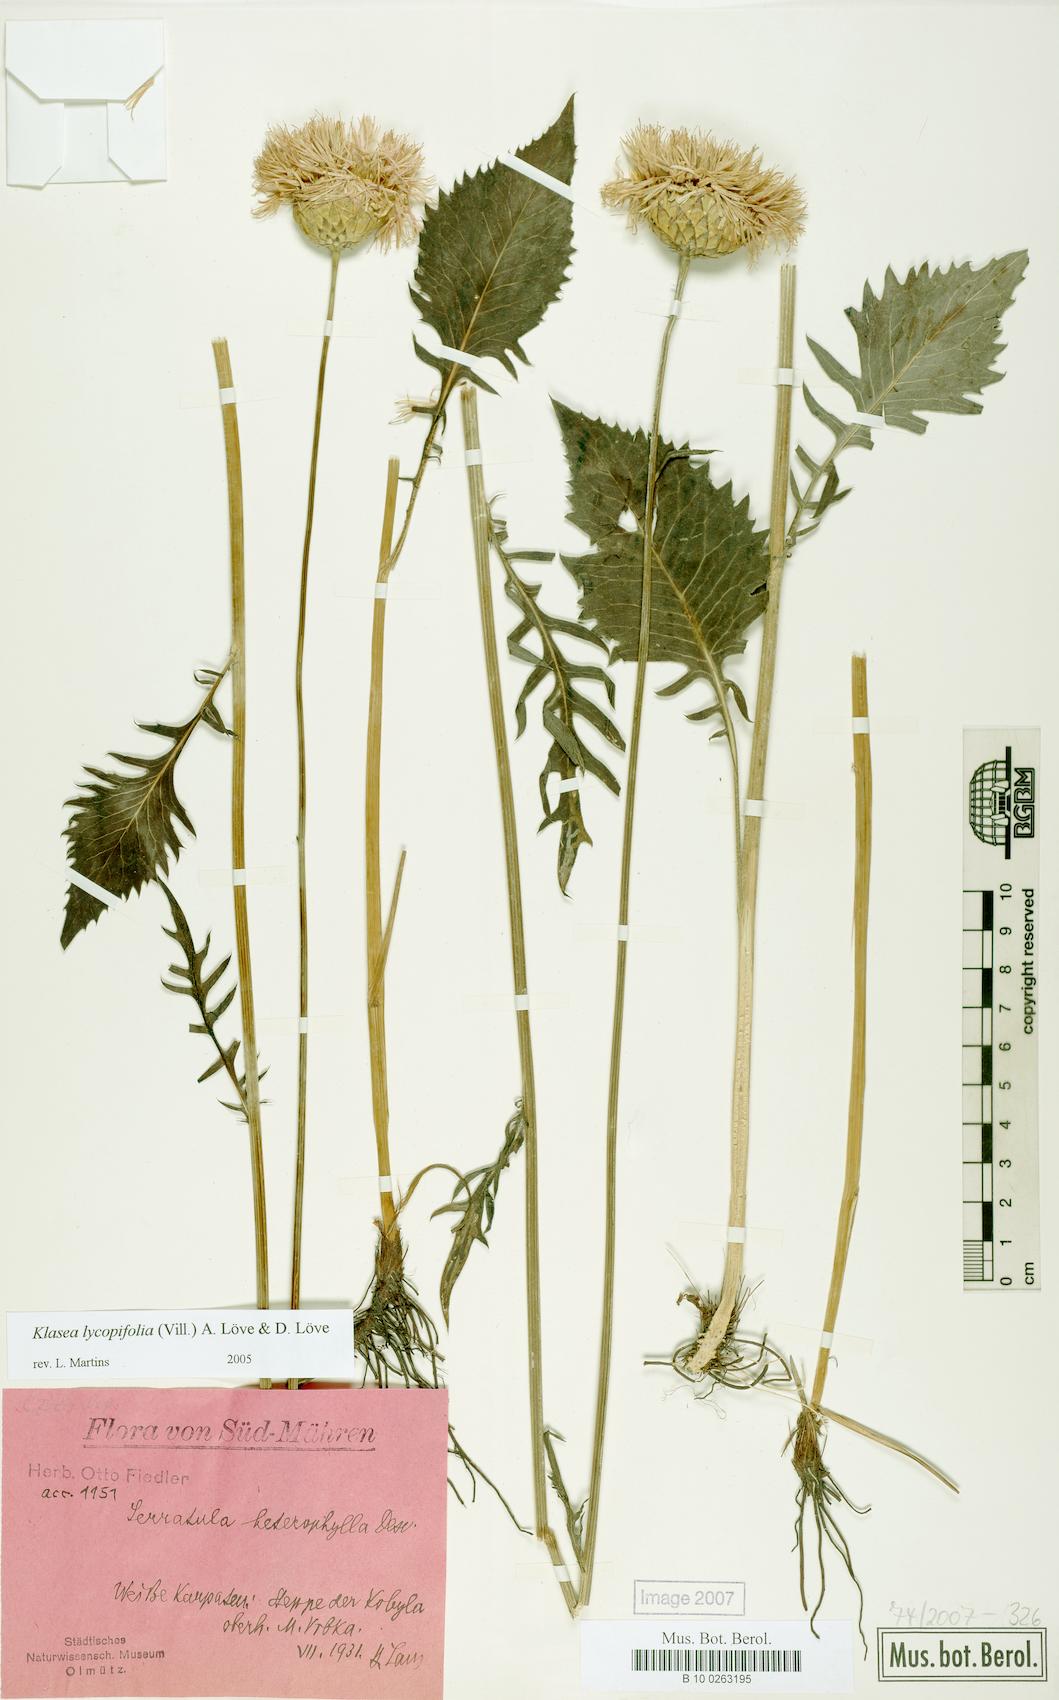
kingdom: Plantae
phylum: Tracheophyta
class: Magnoliopsida
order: Asterales
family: Asteraceae
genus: Klasea
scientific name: Klasea lycopifolia
